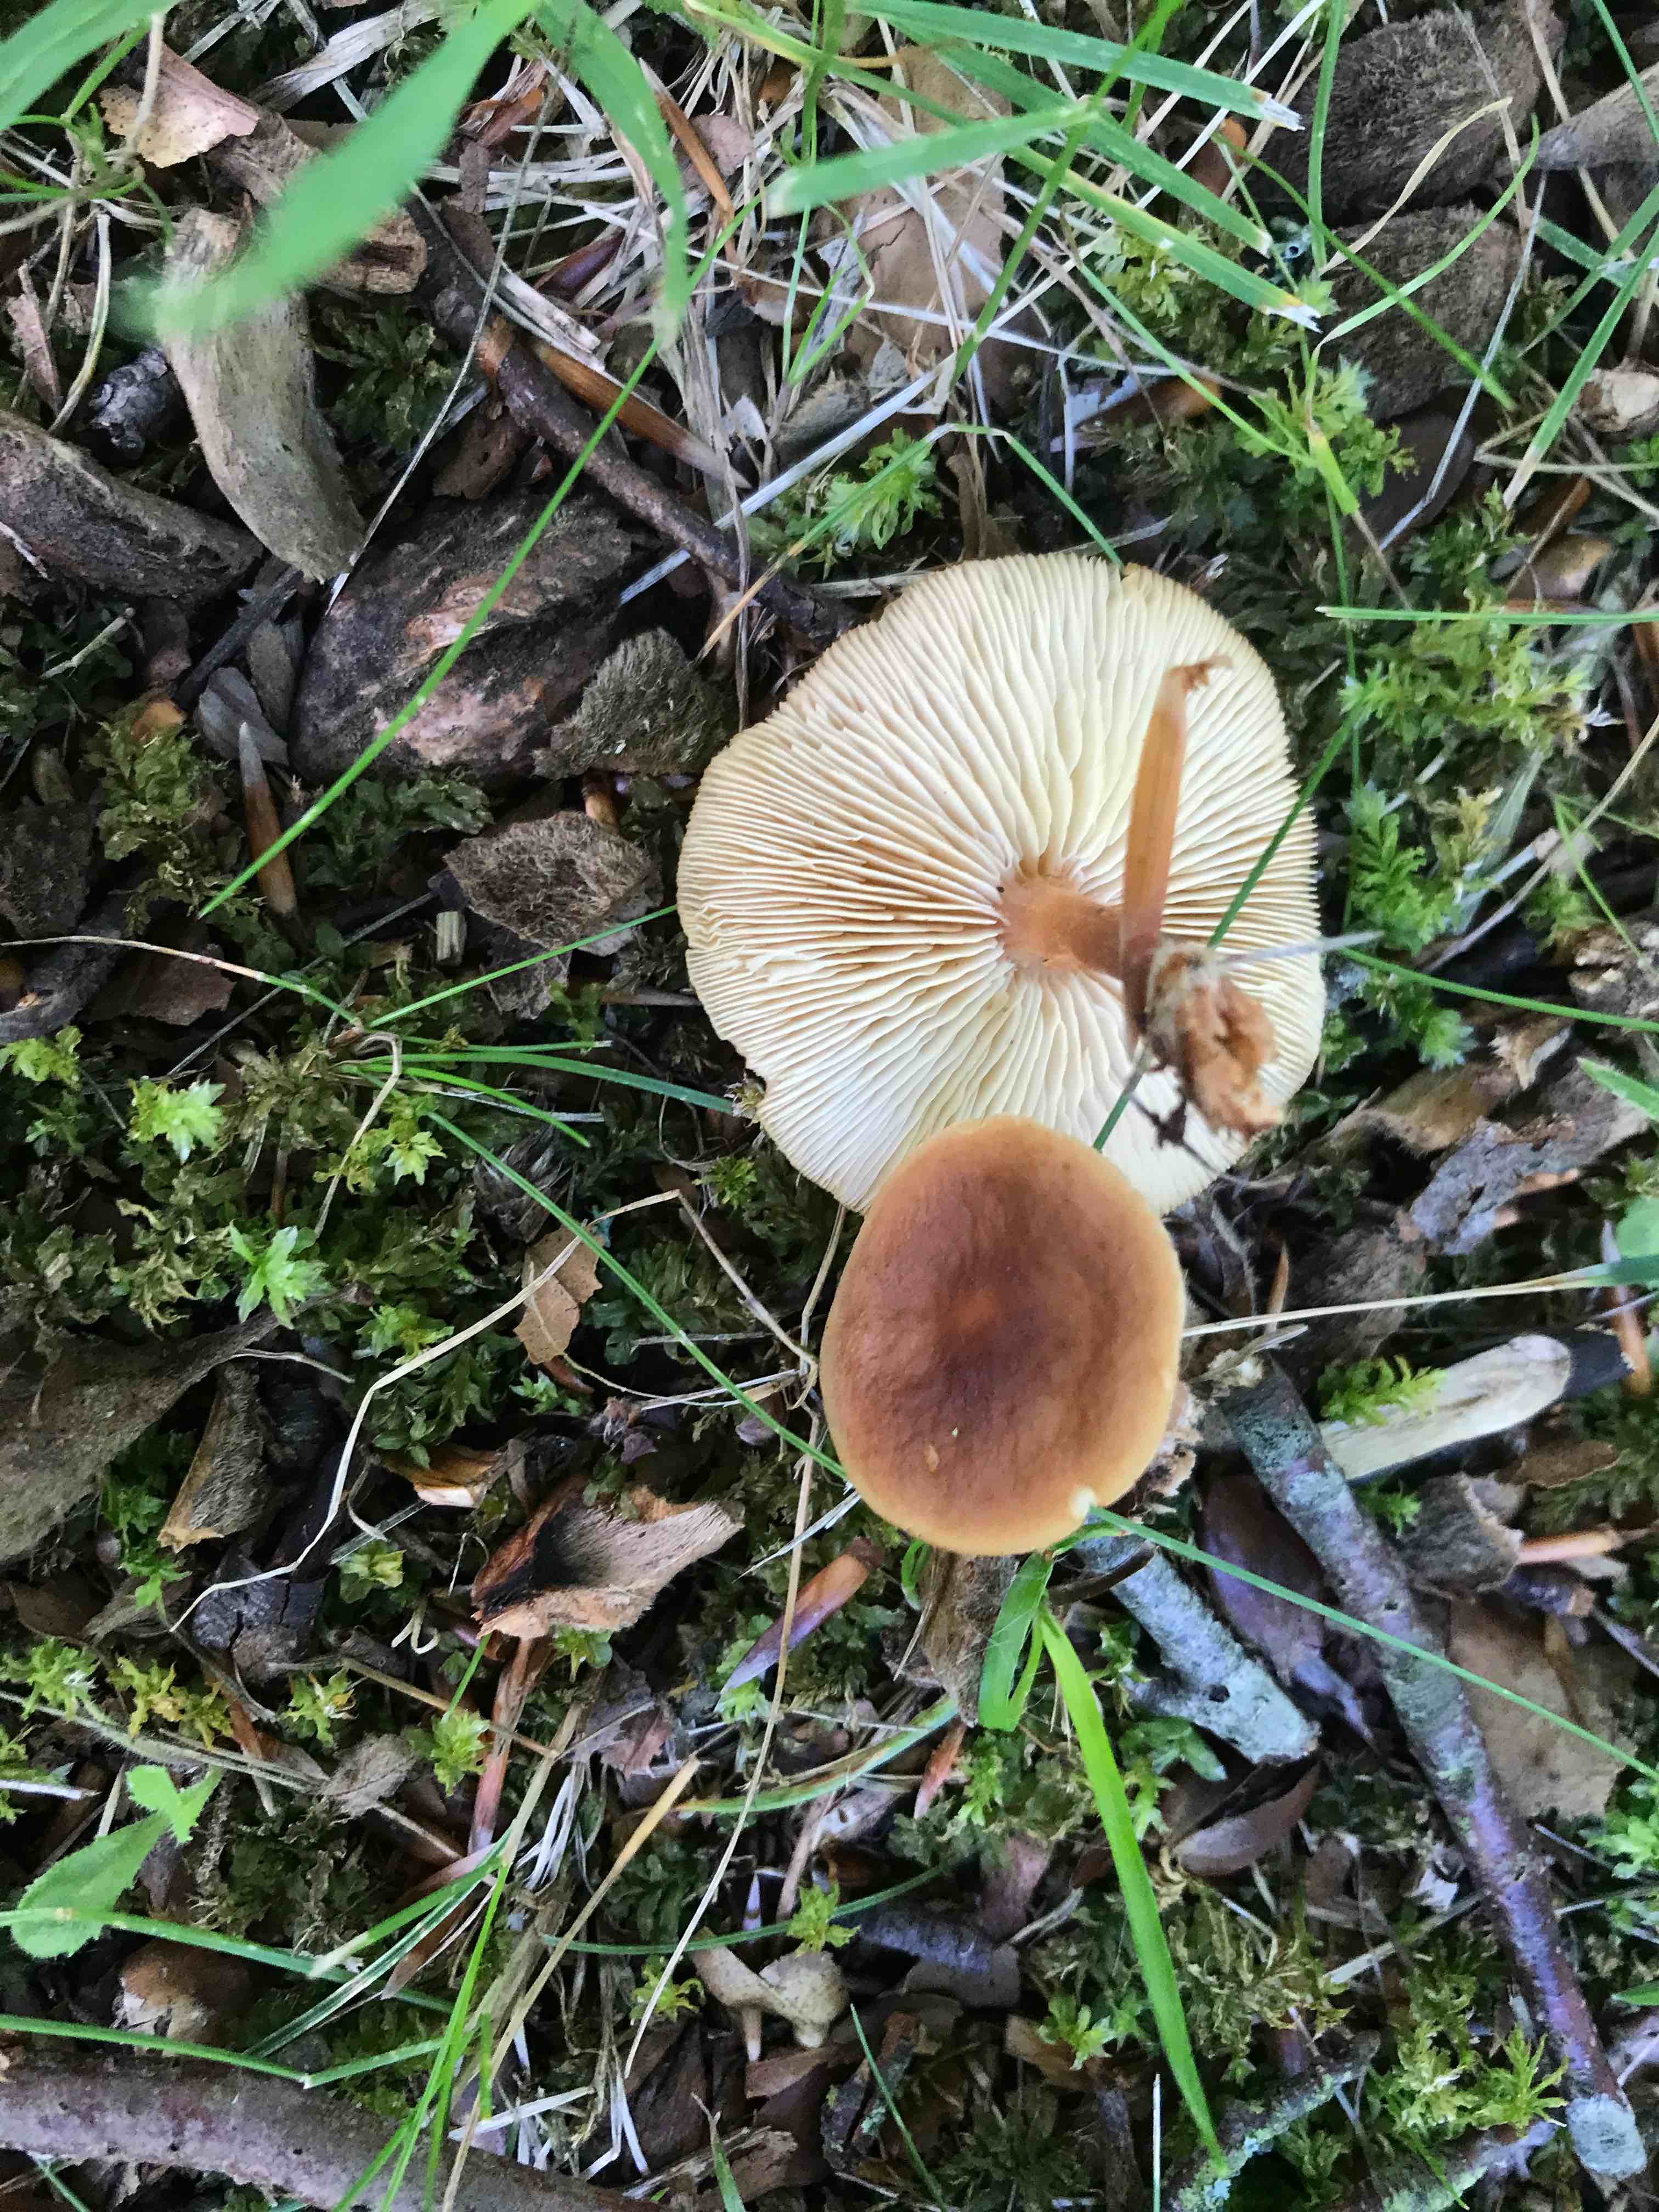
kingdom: Fungi
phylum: Basidiomycota
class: Agaricomycetes
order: Agaricales
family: Omphalotaceae
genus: Gymnopus
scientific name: Gymnopus ocior
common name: mørk fladhat
